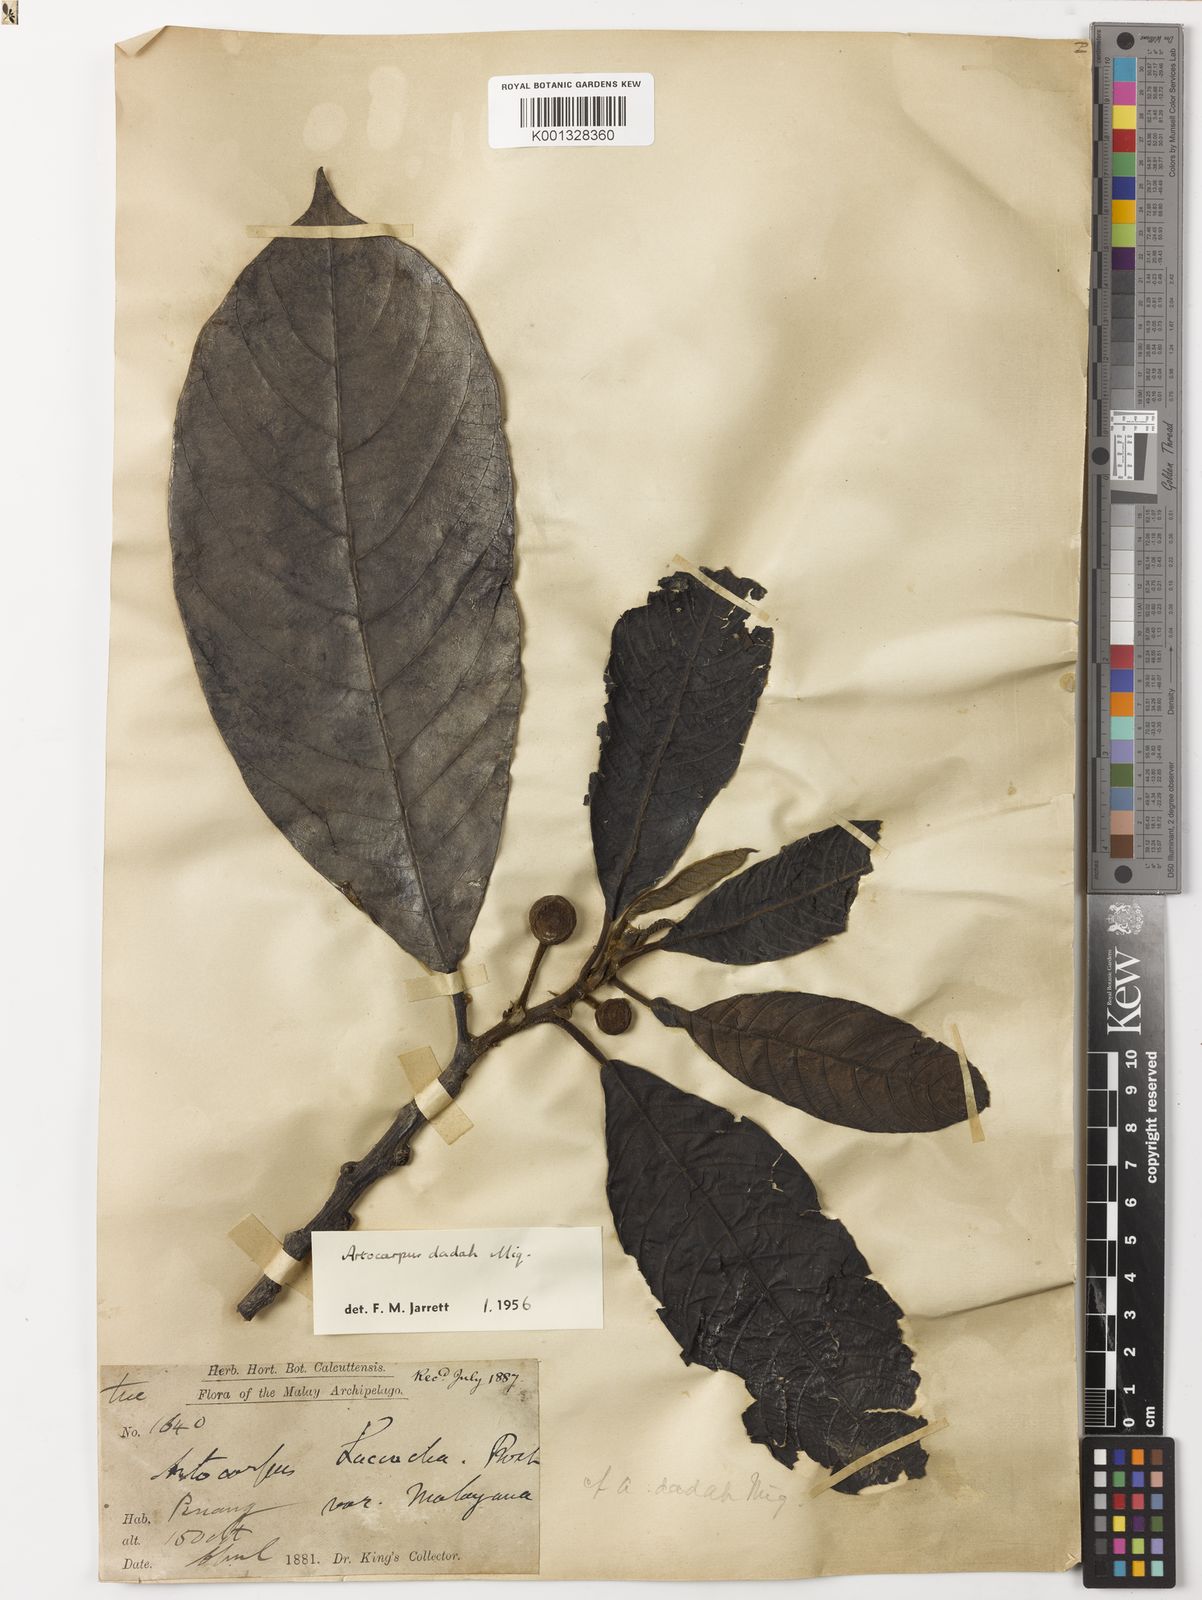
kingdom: Plantae
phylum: Tracheophyta
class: Magnoliopsida
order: Rosales
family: Moraceae
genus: Artocarpus
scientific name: Artocarpus lacucha
